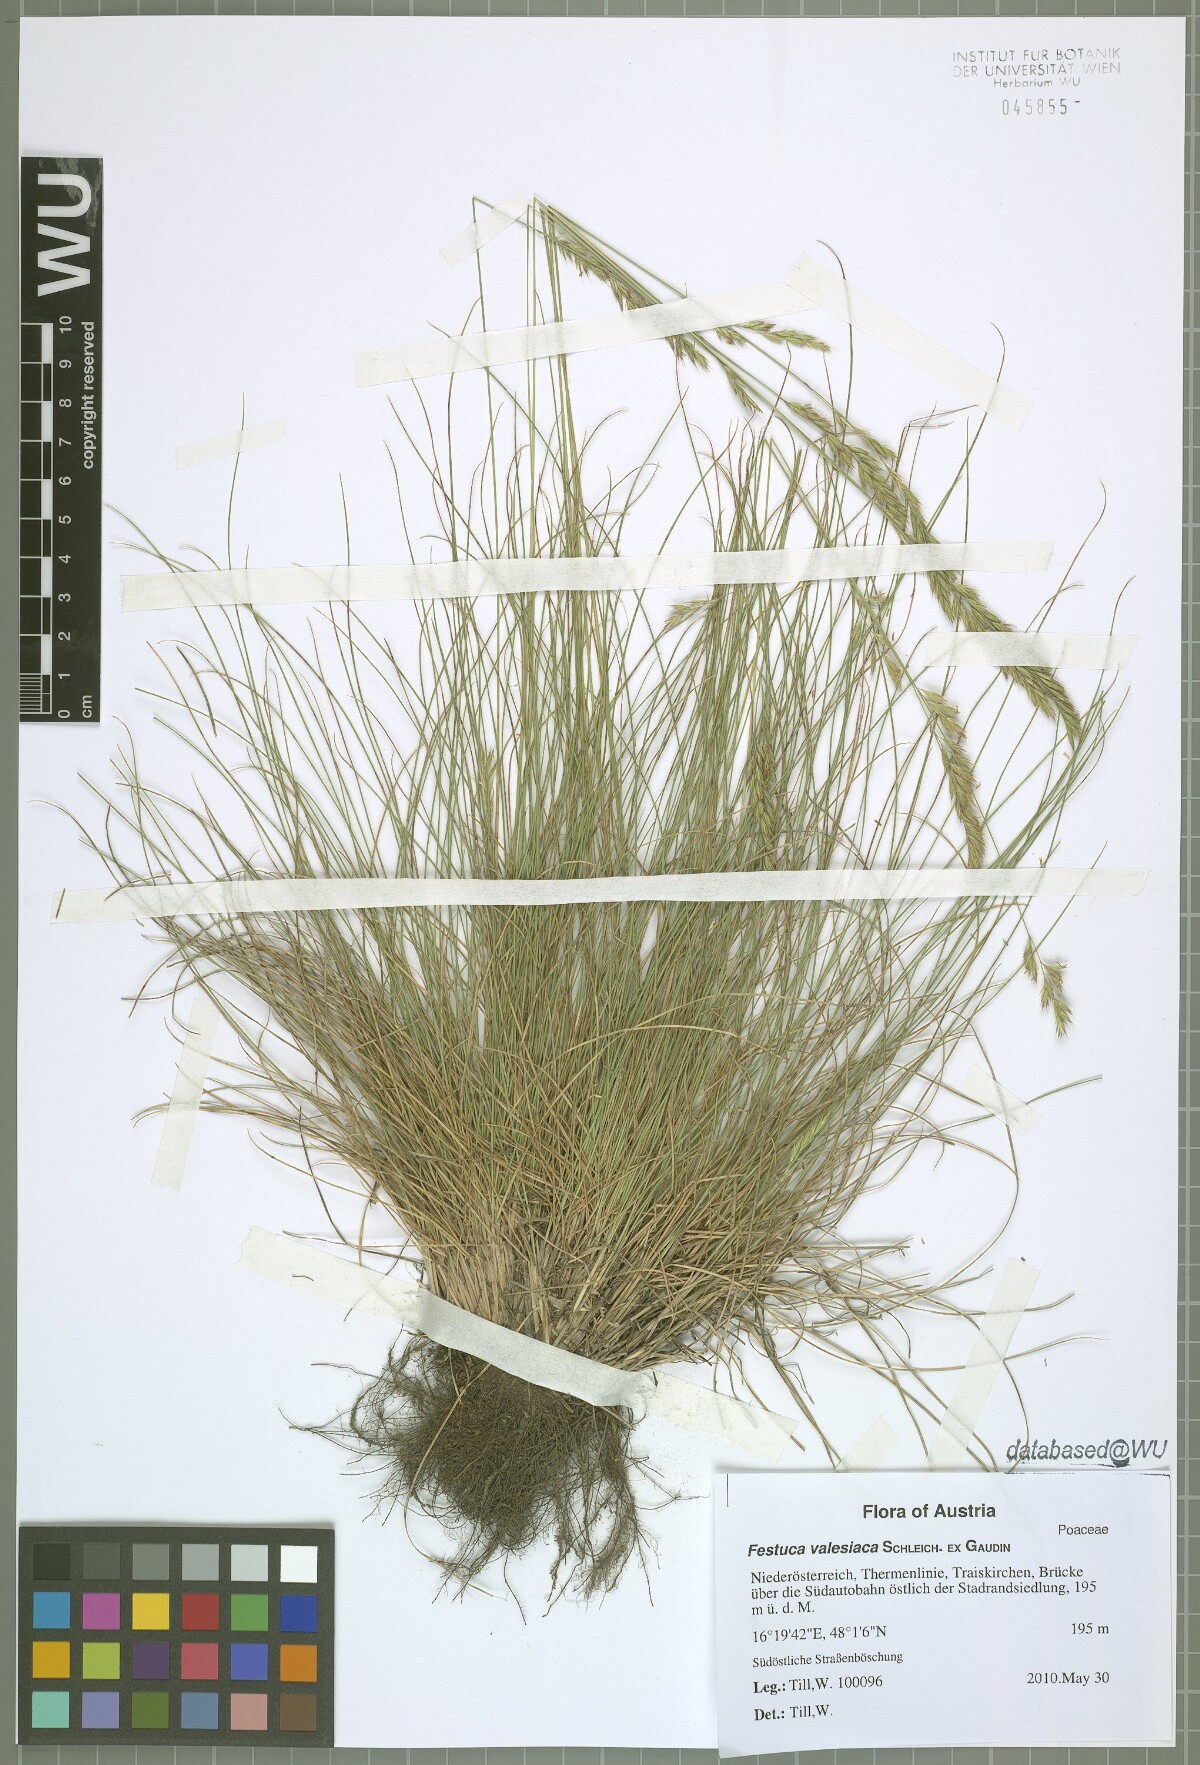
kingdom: Plantae
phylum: Tracheophyta
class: Liliopsida
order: Poales
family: Poaceae
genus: Festuca
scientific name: Festuca rupicola
